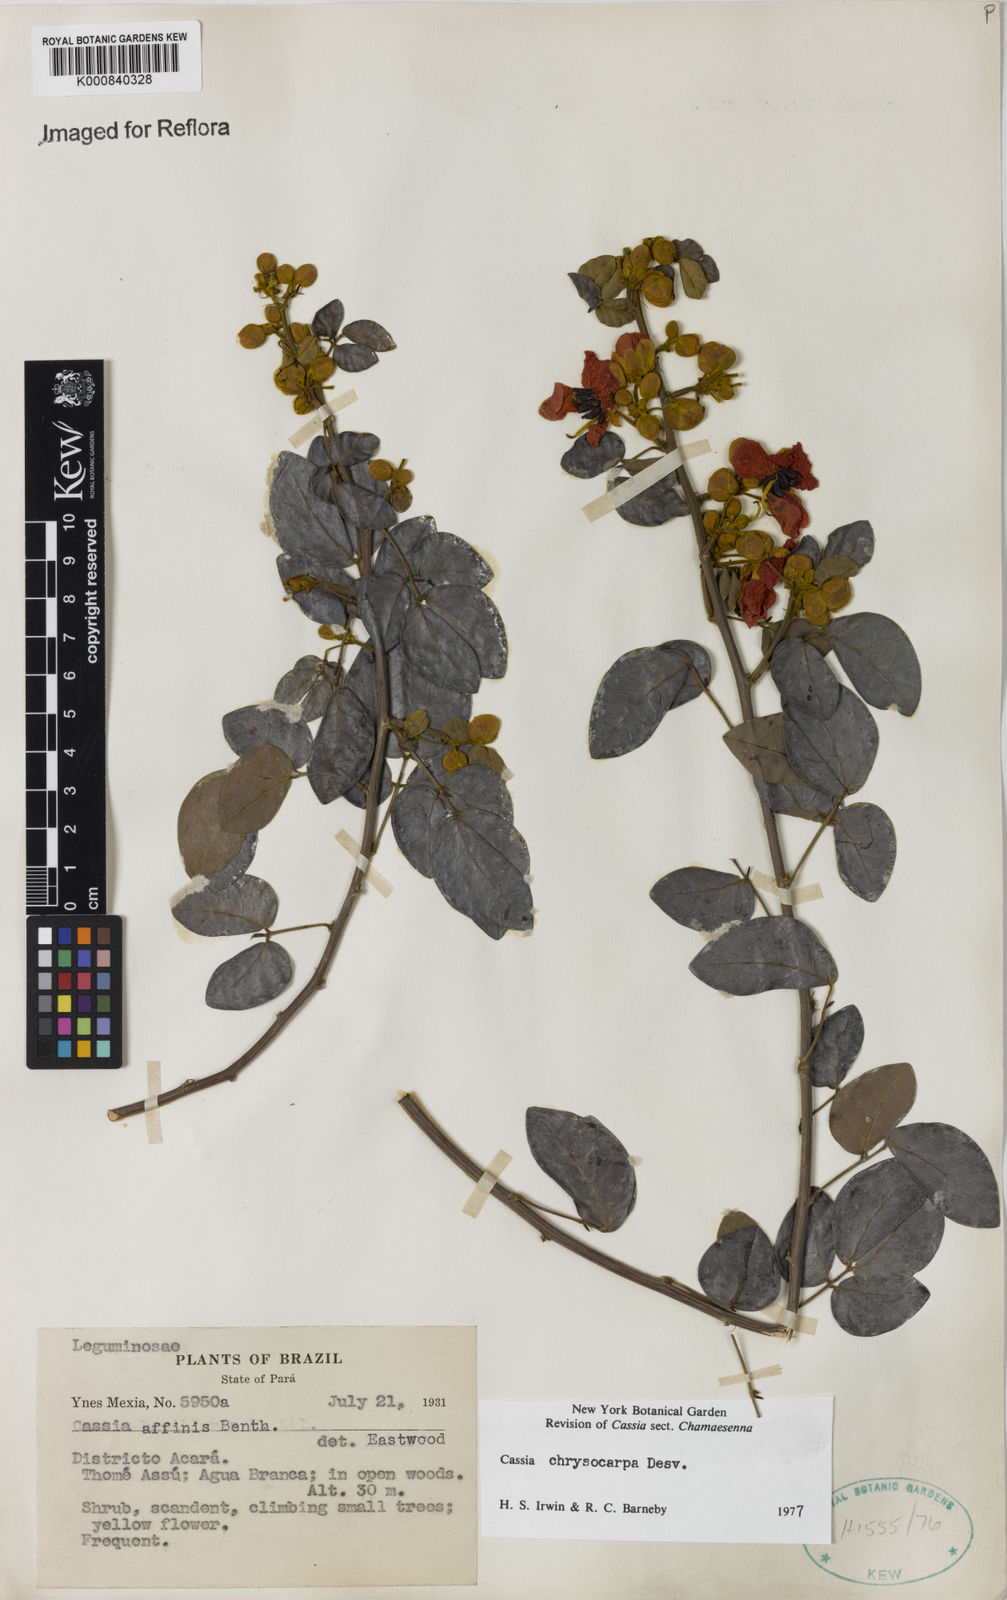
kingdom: Plantae
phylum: Tracheophyta
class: Magnoliopsida
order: Fabales
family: Fabaceae
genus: Senna
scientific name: Senna chrysocarpa
